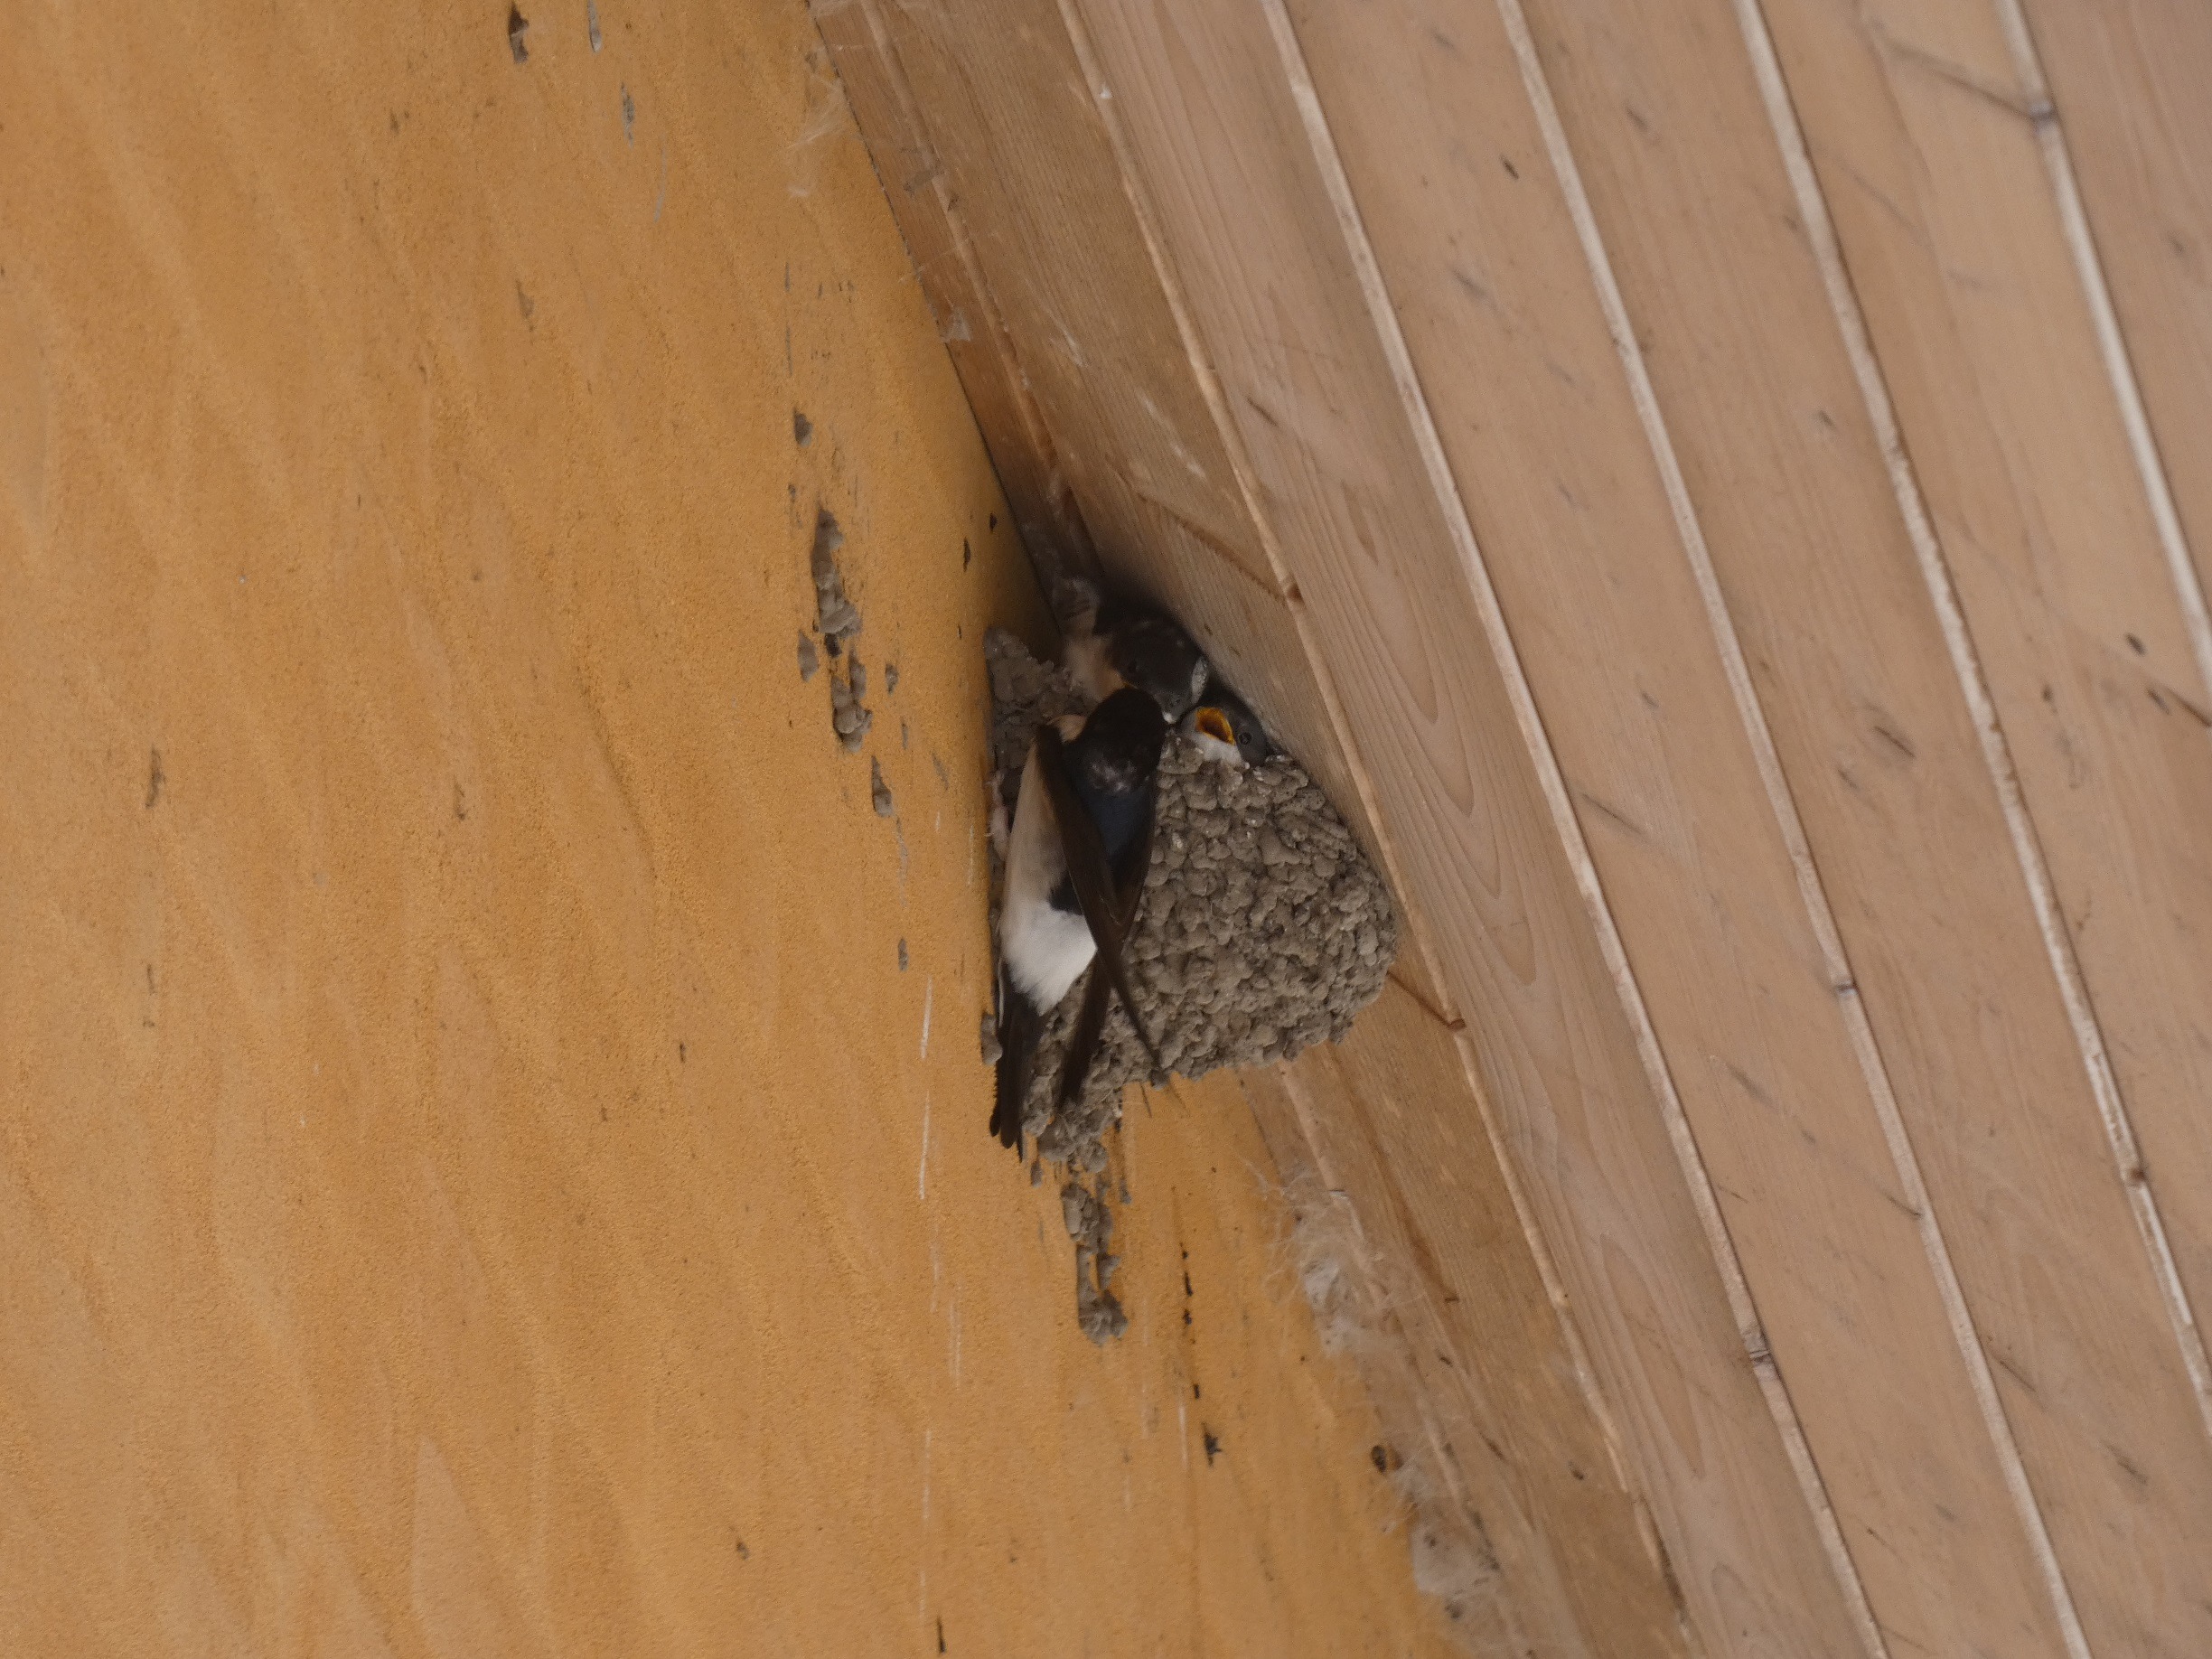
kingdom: Animalia
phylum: Chordata
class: Aves
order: Passeriformes
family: Hirundinidae
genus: Delichon
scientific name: Delichon urbicum
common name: Bysvale
